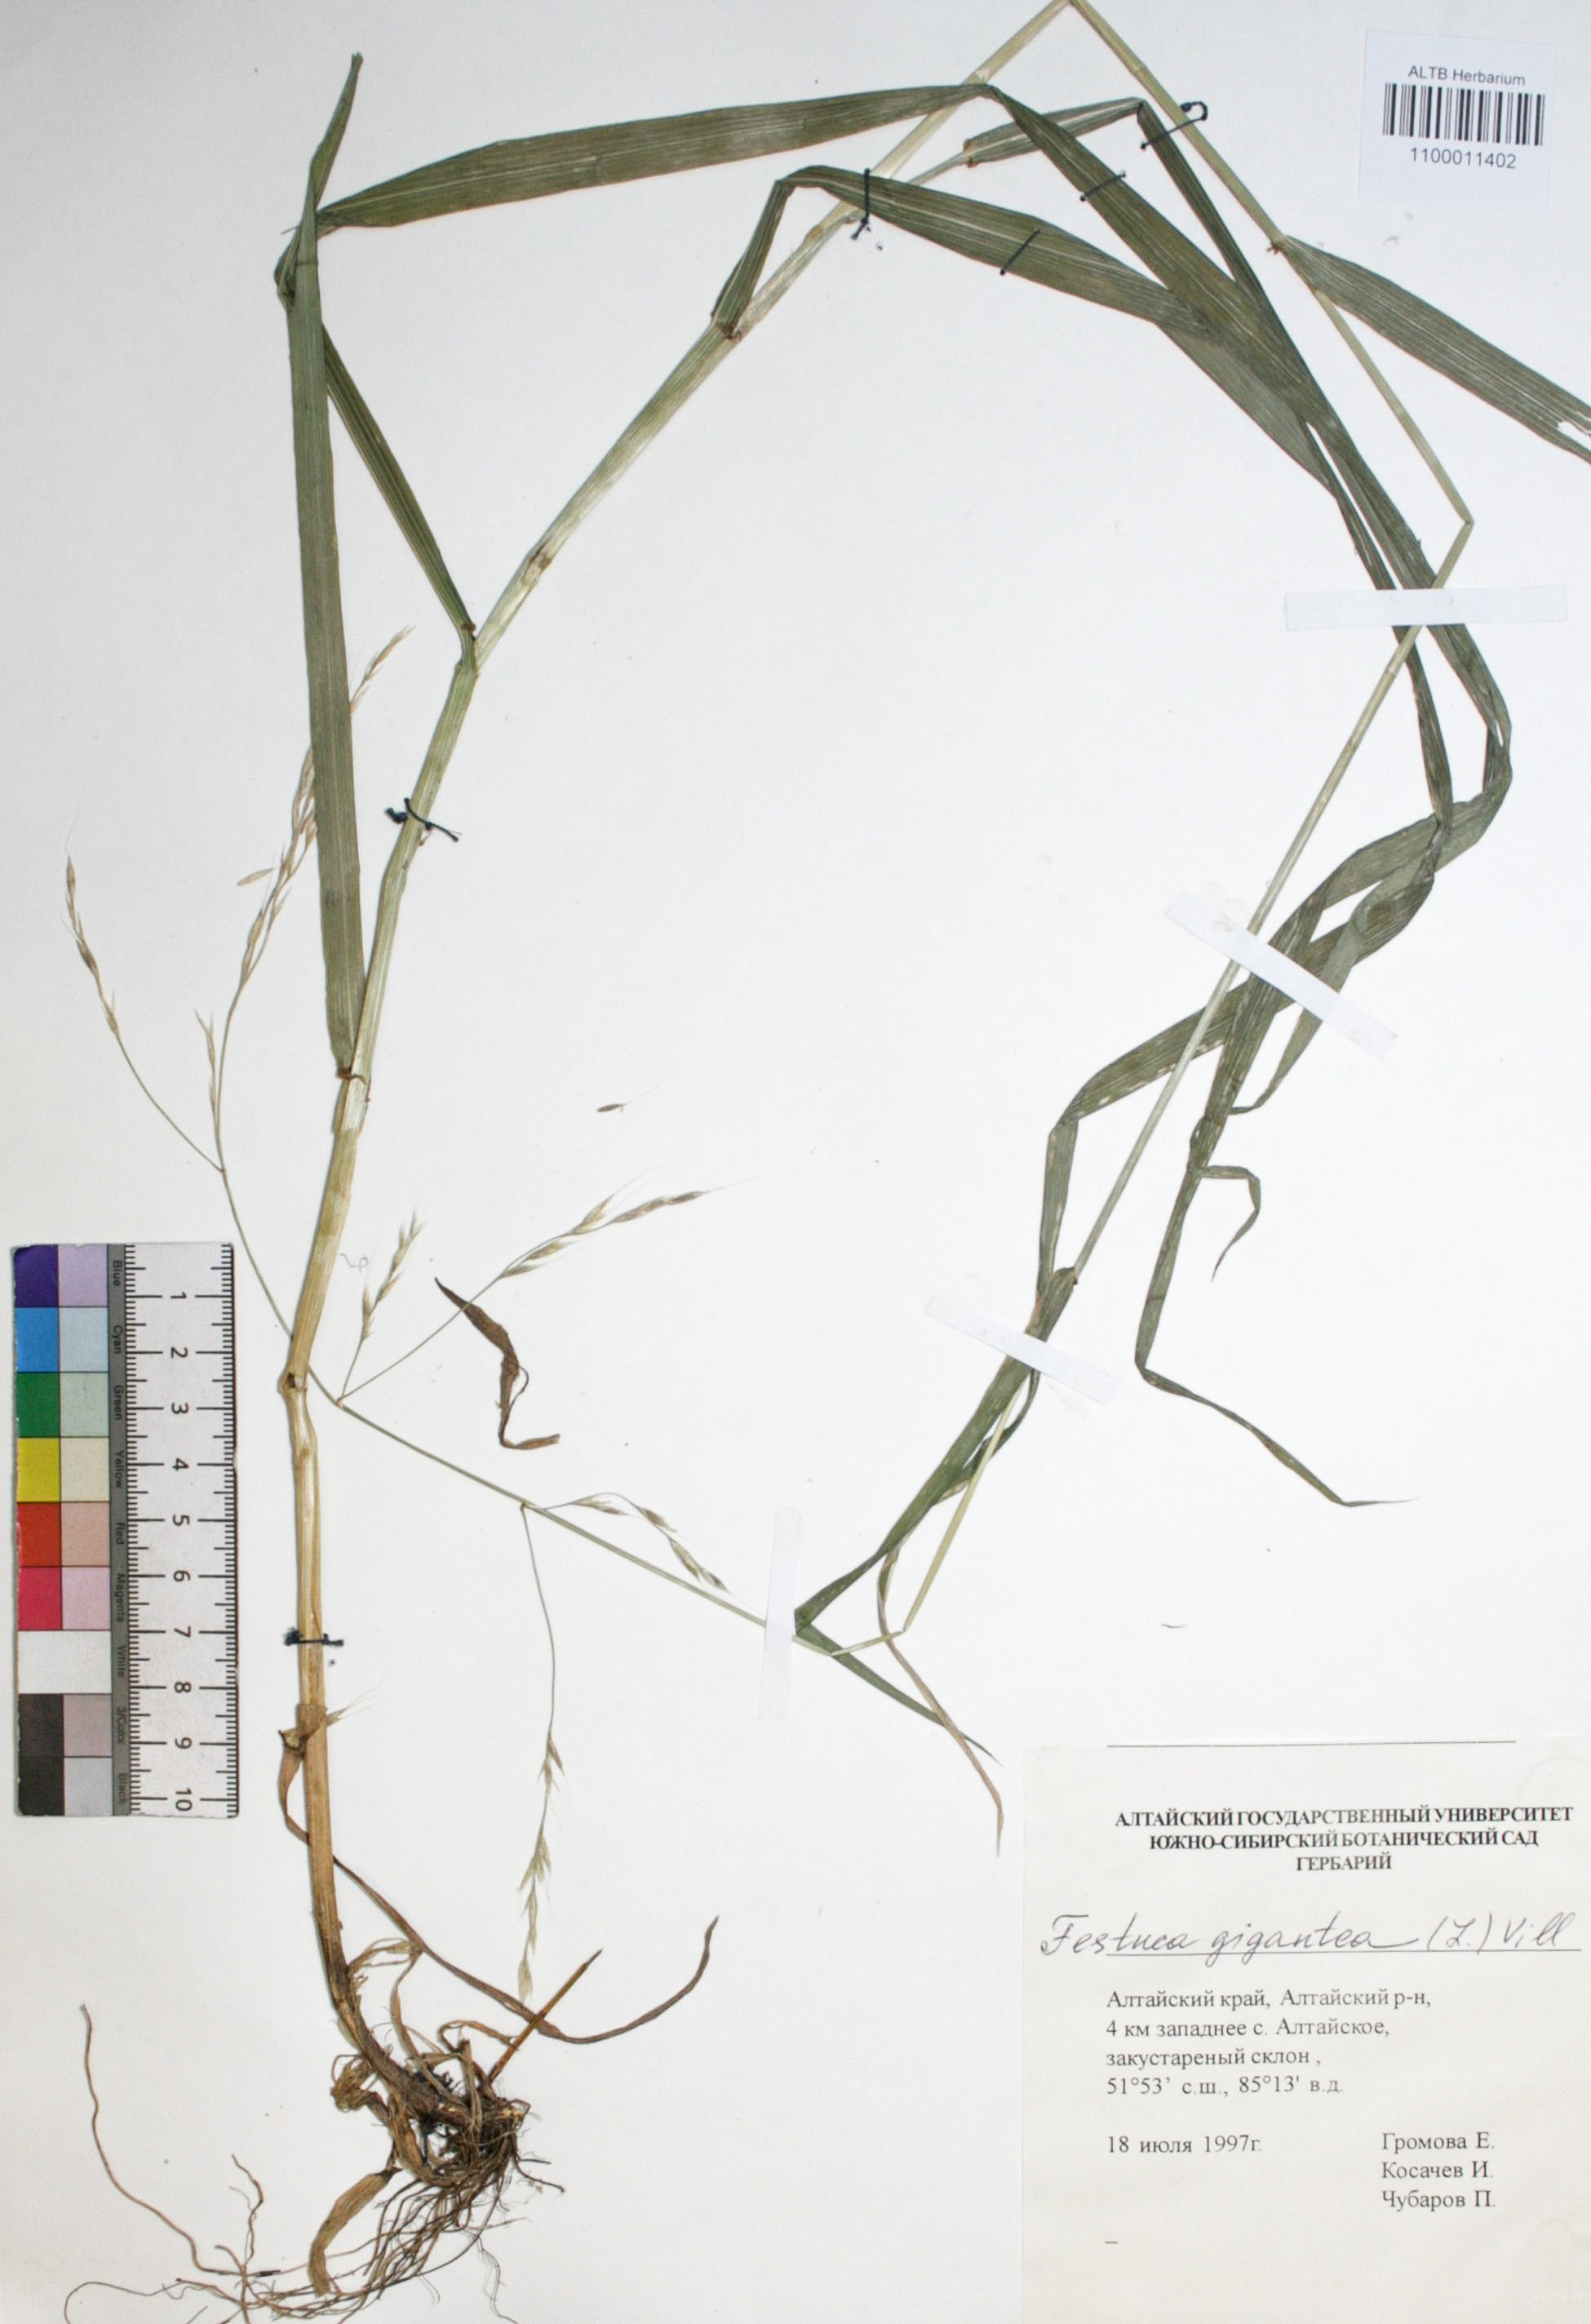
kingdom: Plantae
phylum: Tracheophyta
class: Liliopsida
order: Poales
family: Poaceae
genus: Lolium
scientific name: Lolium giganteum
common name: Giant fescue
